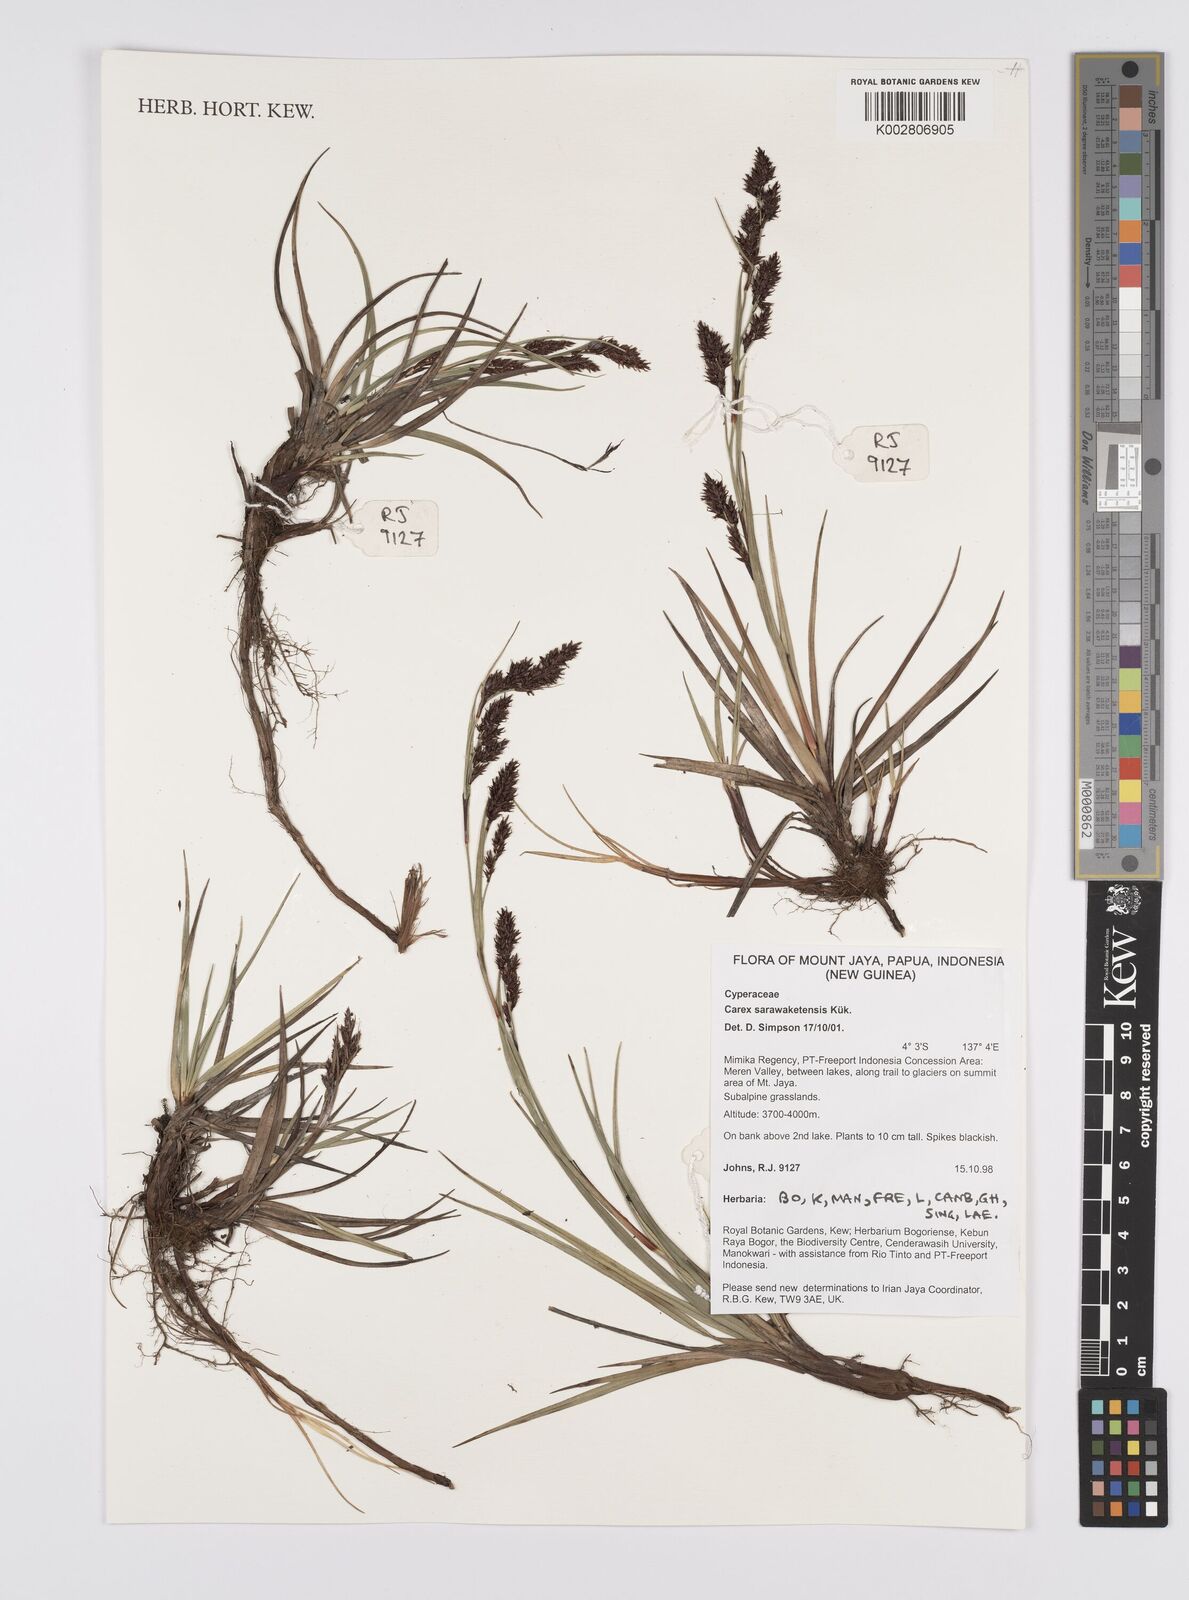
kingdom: Plantae
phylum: Tracheophyta
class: Liliopsida
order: Poales
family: Cyperaceae
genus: Carex
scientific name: Carex sarawaketensis
